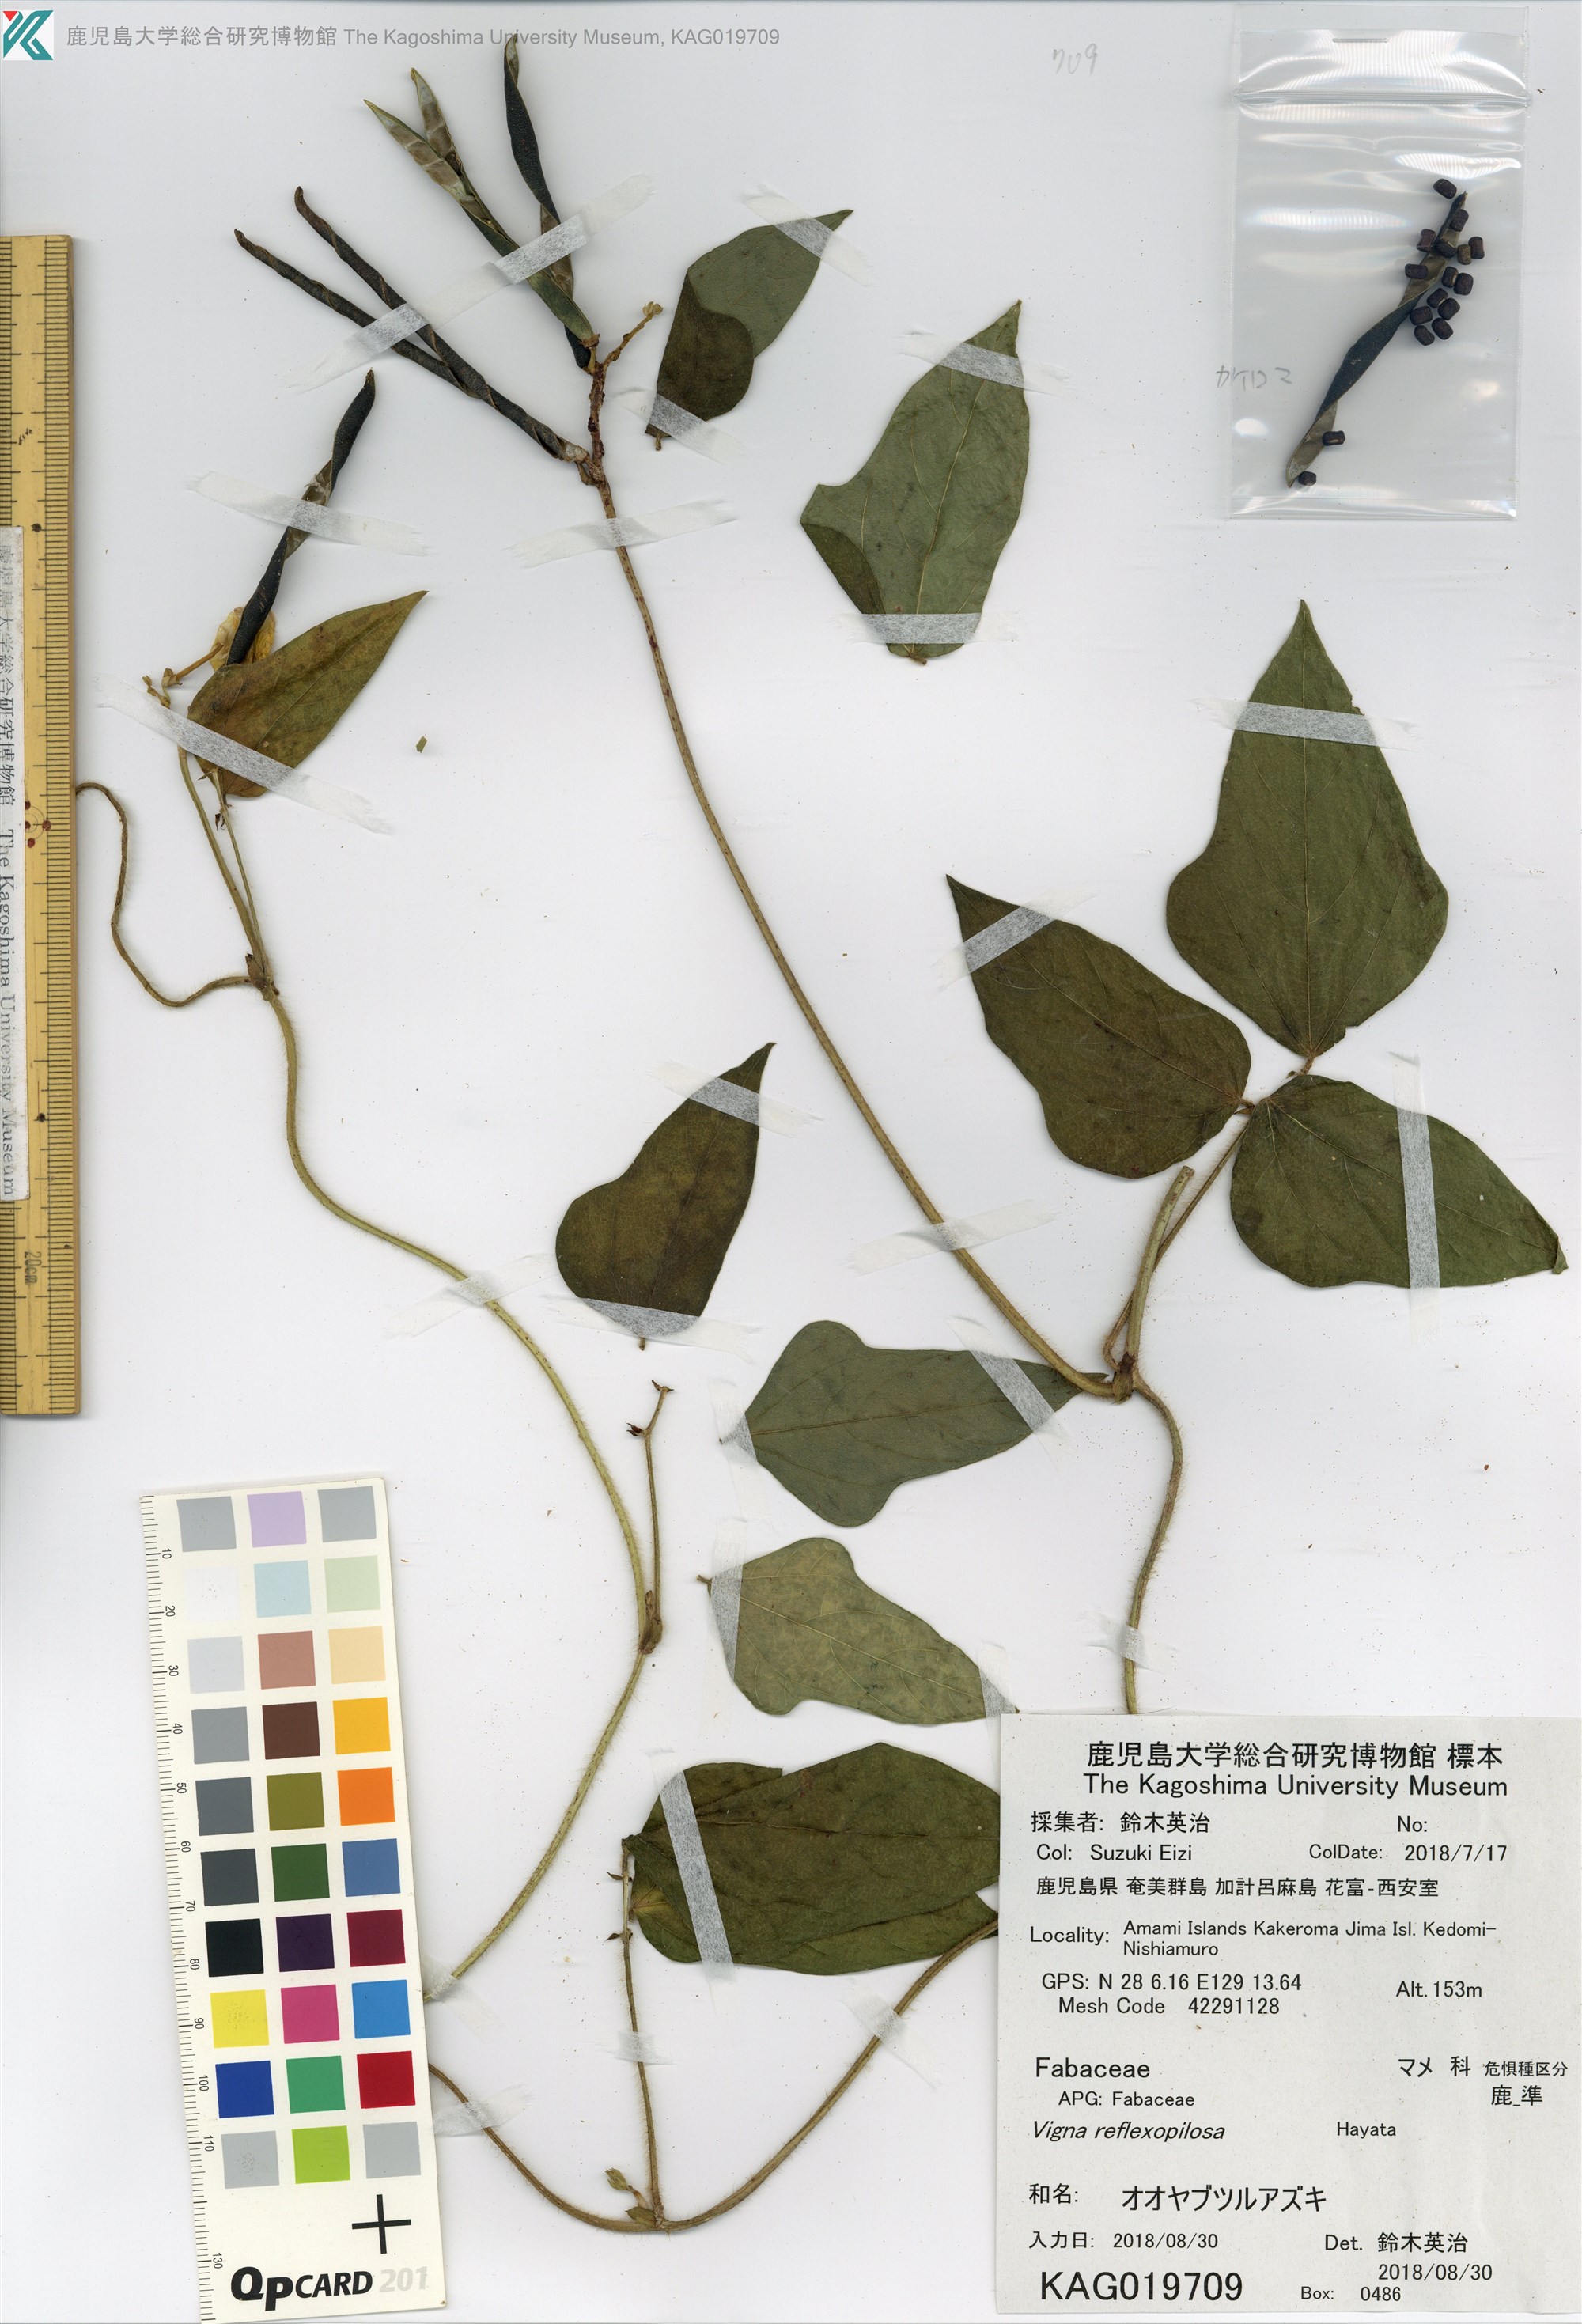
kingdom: Plantae
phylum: Tracheophyta
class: Magnoliopsida
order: Fabales
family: Fabaceae
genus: Vigna
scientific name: Vigna reflexopilosa
